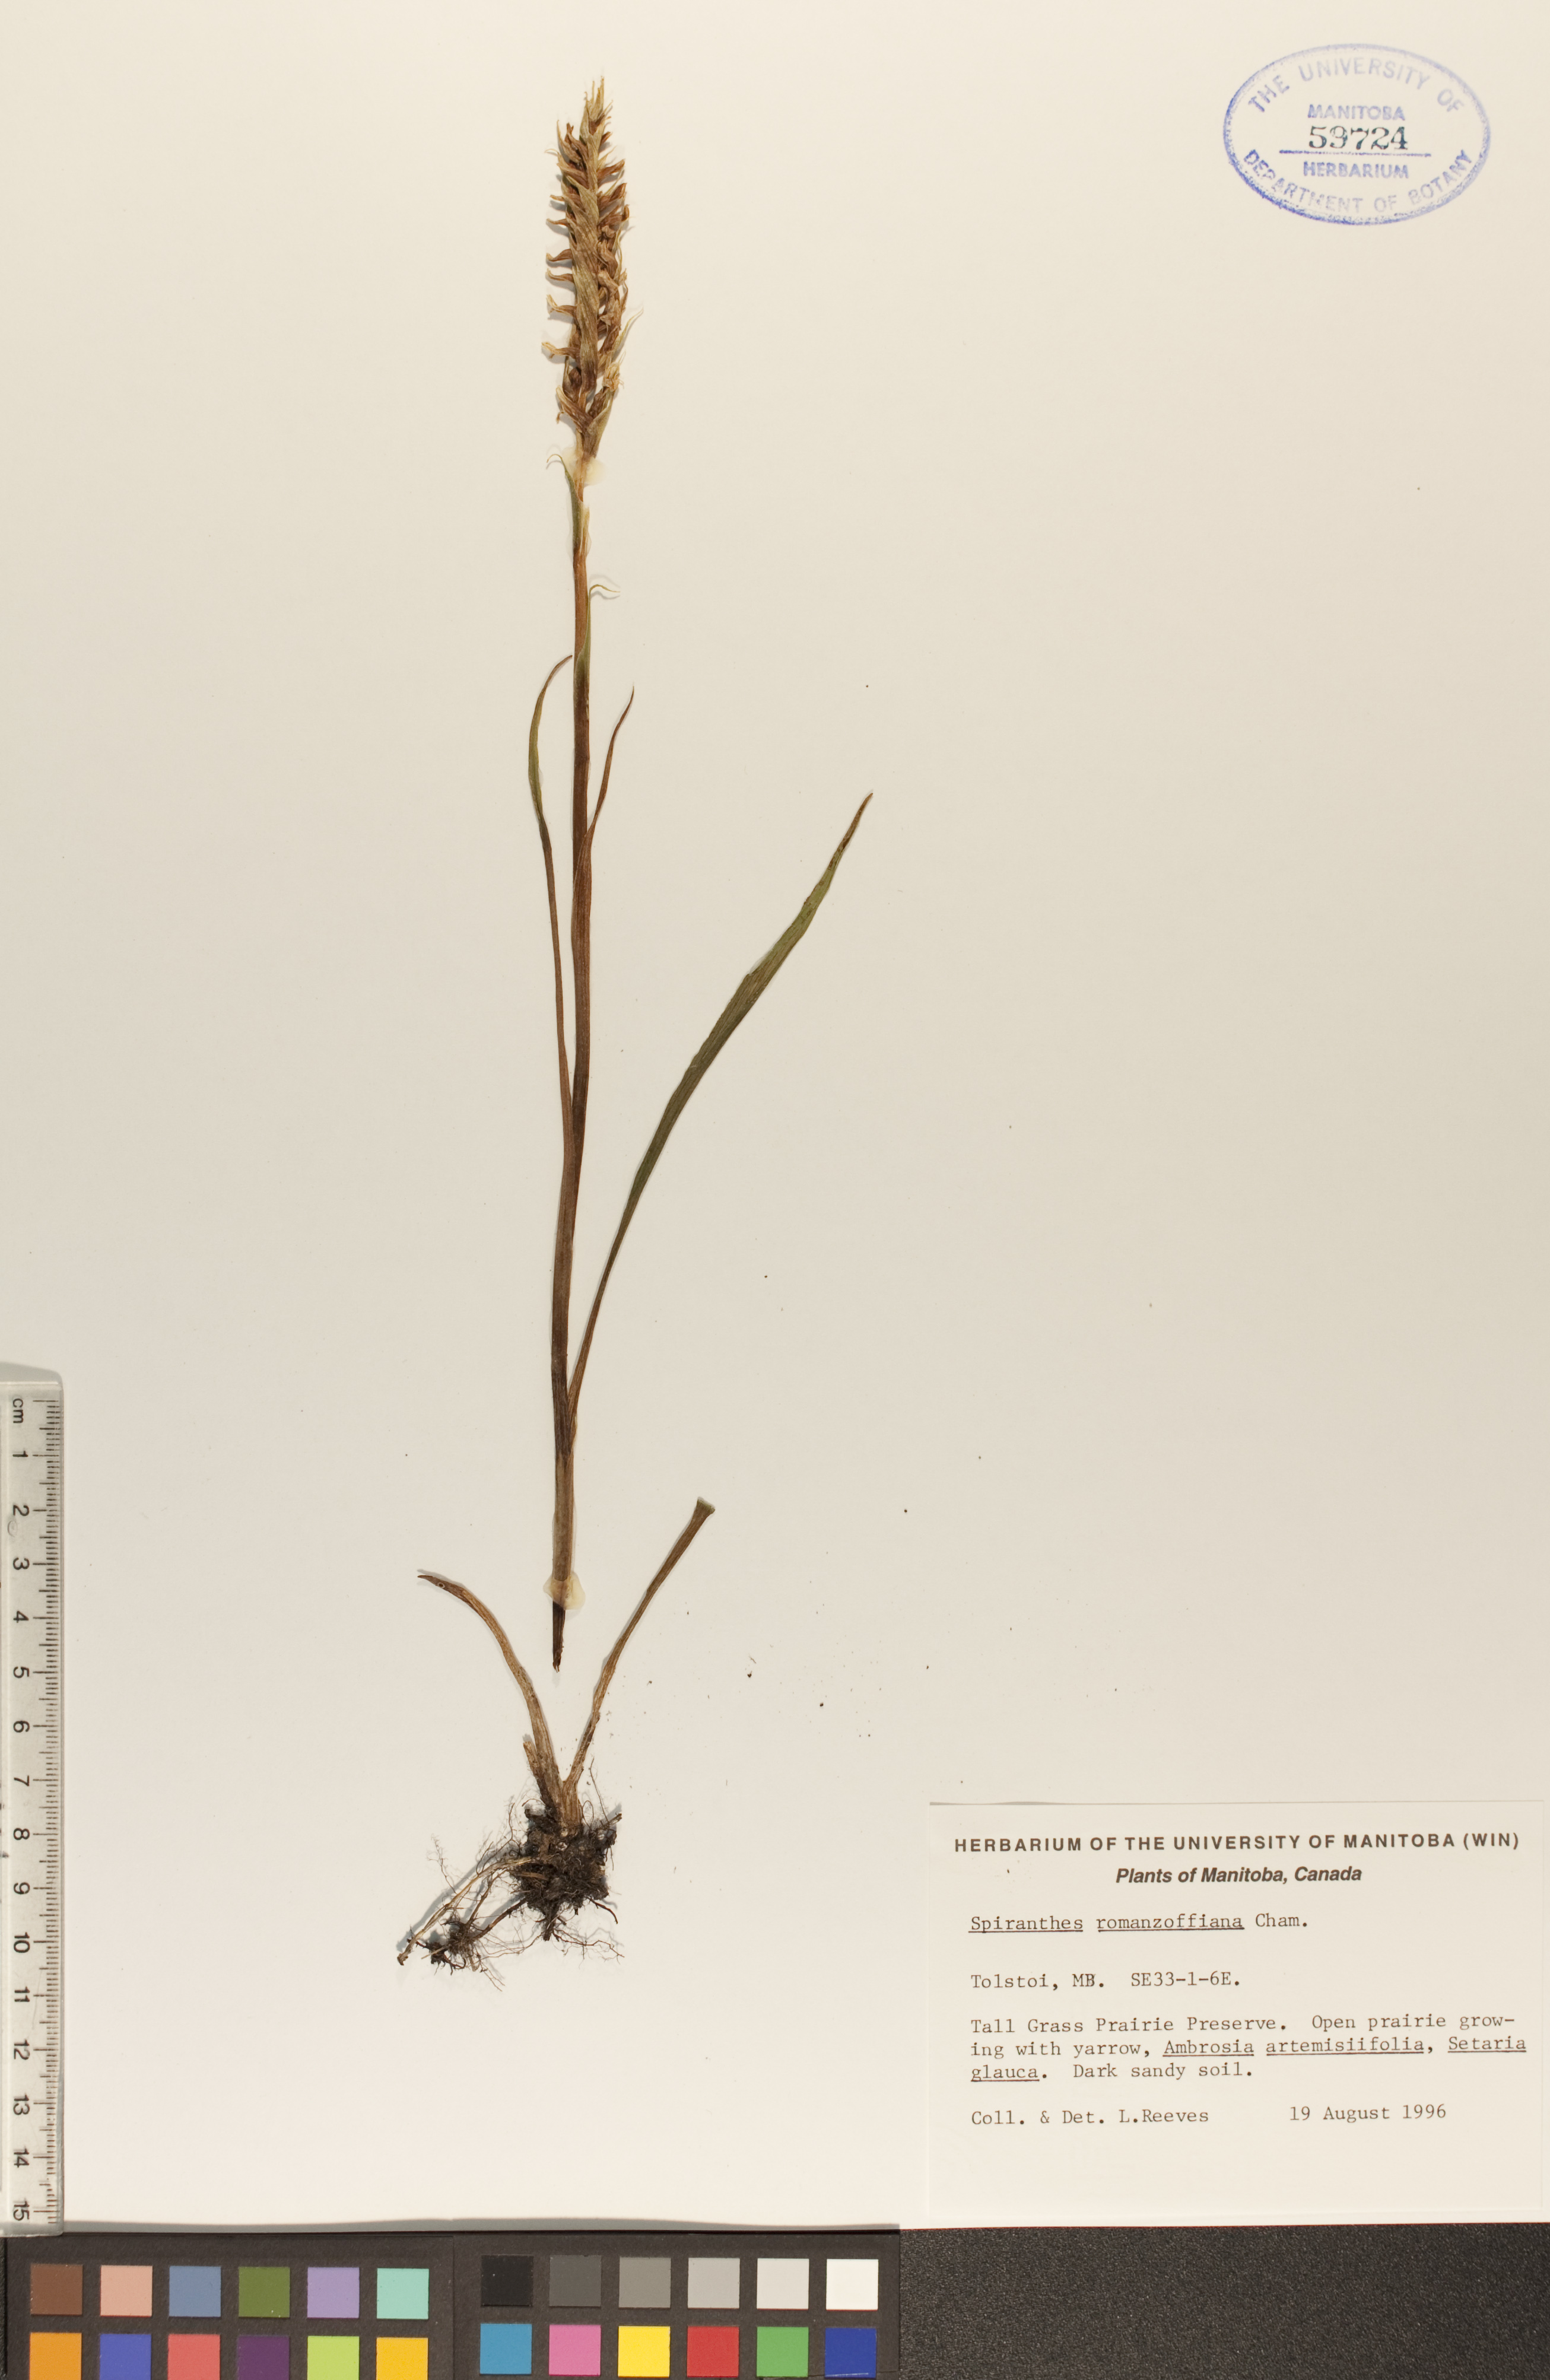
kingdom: Plantae
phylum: Tracheophyta
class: Liliopsida
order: Asparagales
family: Orchidaceae
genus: Spiranthes
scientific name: Spiranthes romanzoffiana
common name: Irish lady's-tresses
